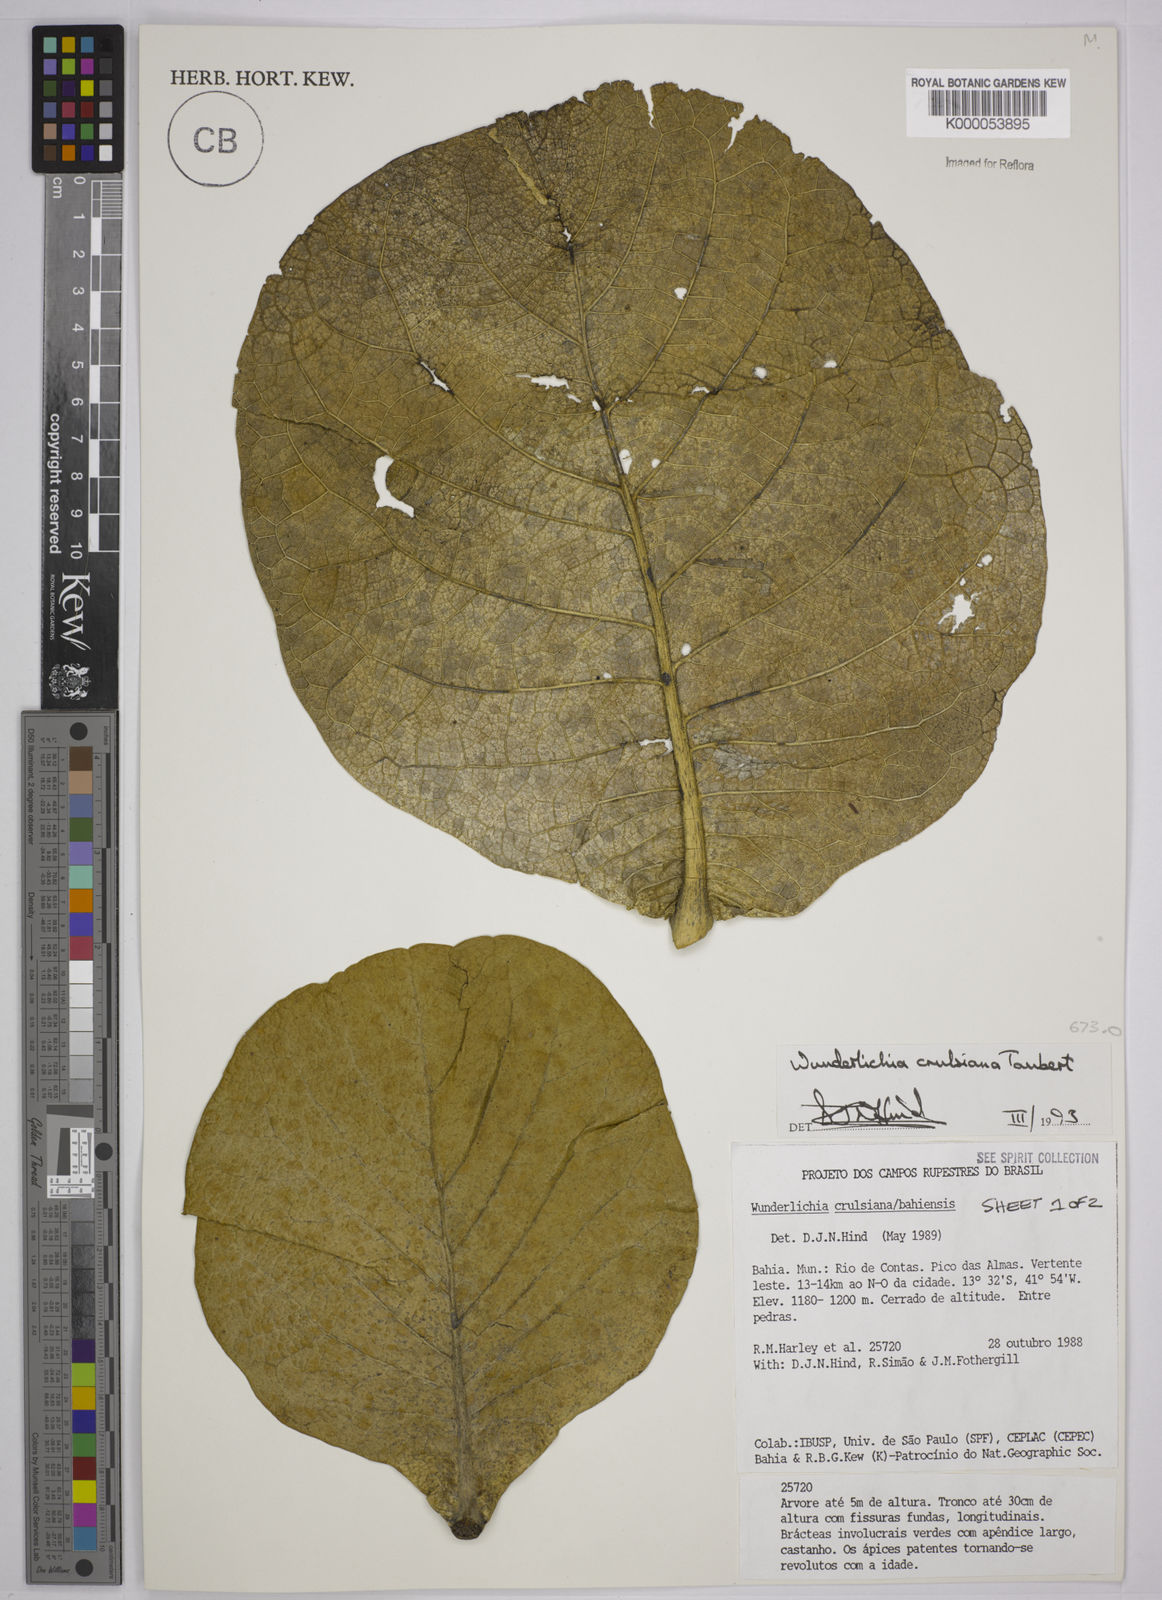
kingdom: Plantae
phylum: Tracheophyta
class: Magnoliopsida
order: Asterales
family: Asteraceae
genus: Wunderlichia
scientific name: Wunderlichia
